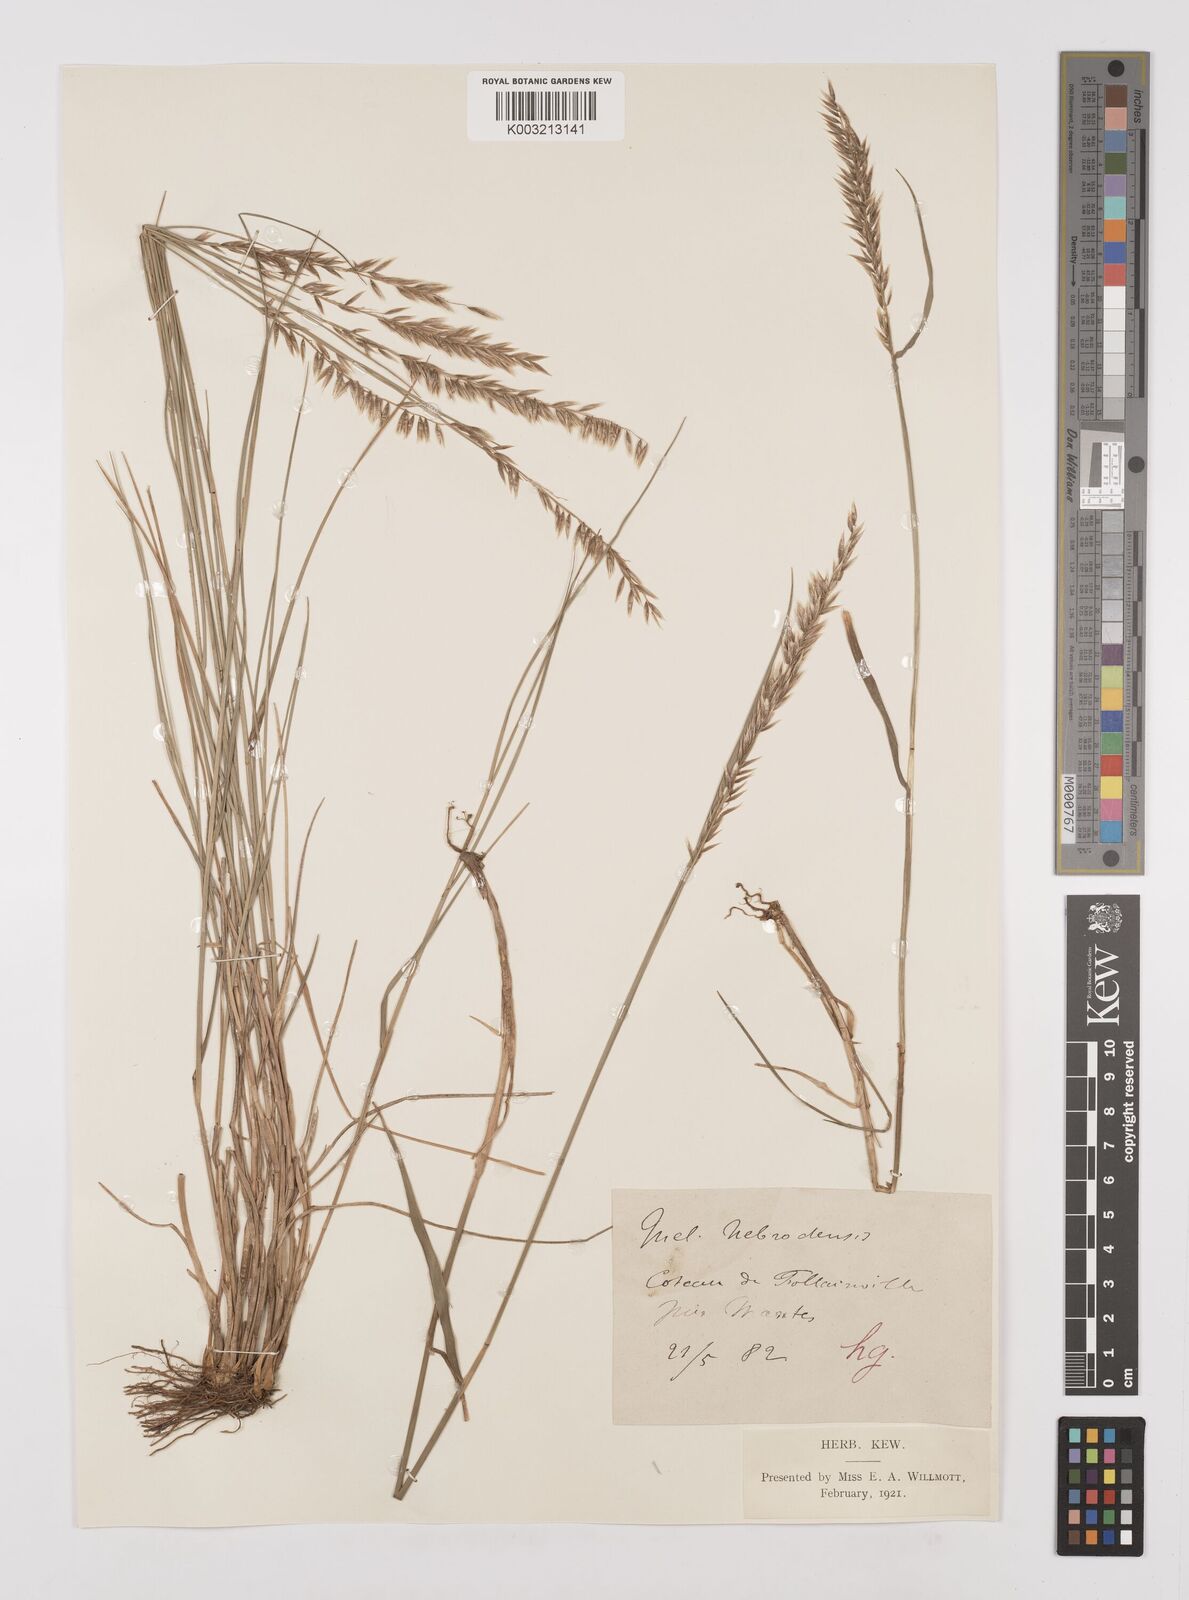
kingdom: Plantae
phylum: Tracheophyta
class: Liliopsida
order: Poales
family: Poaceae
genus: Melica
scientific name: Melica ciliata
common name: Hairy melicgrass
